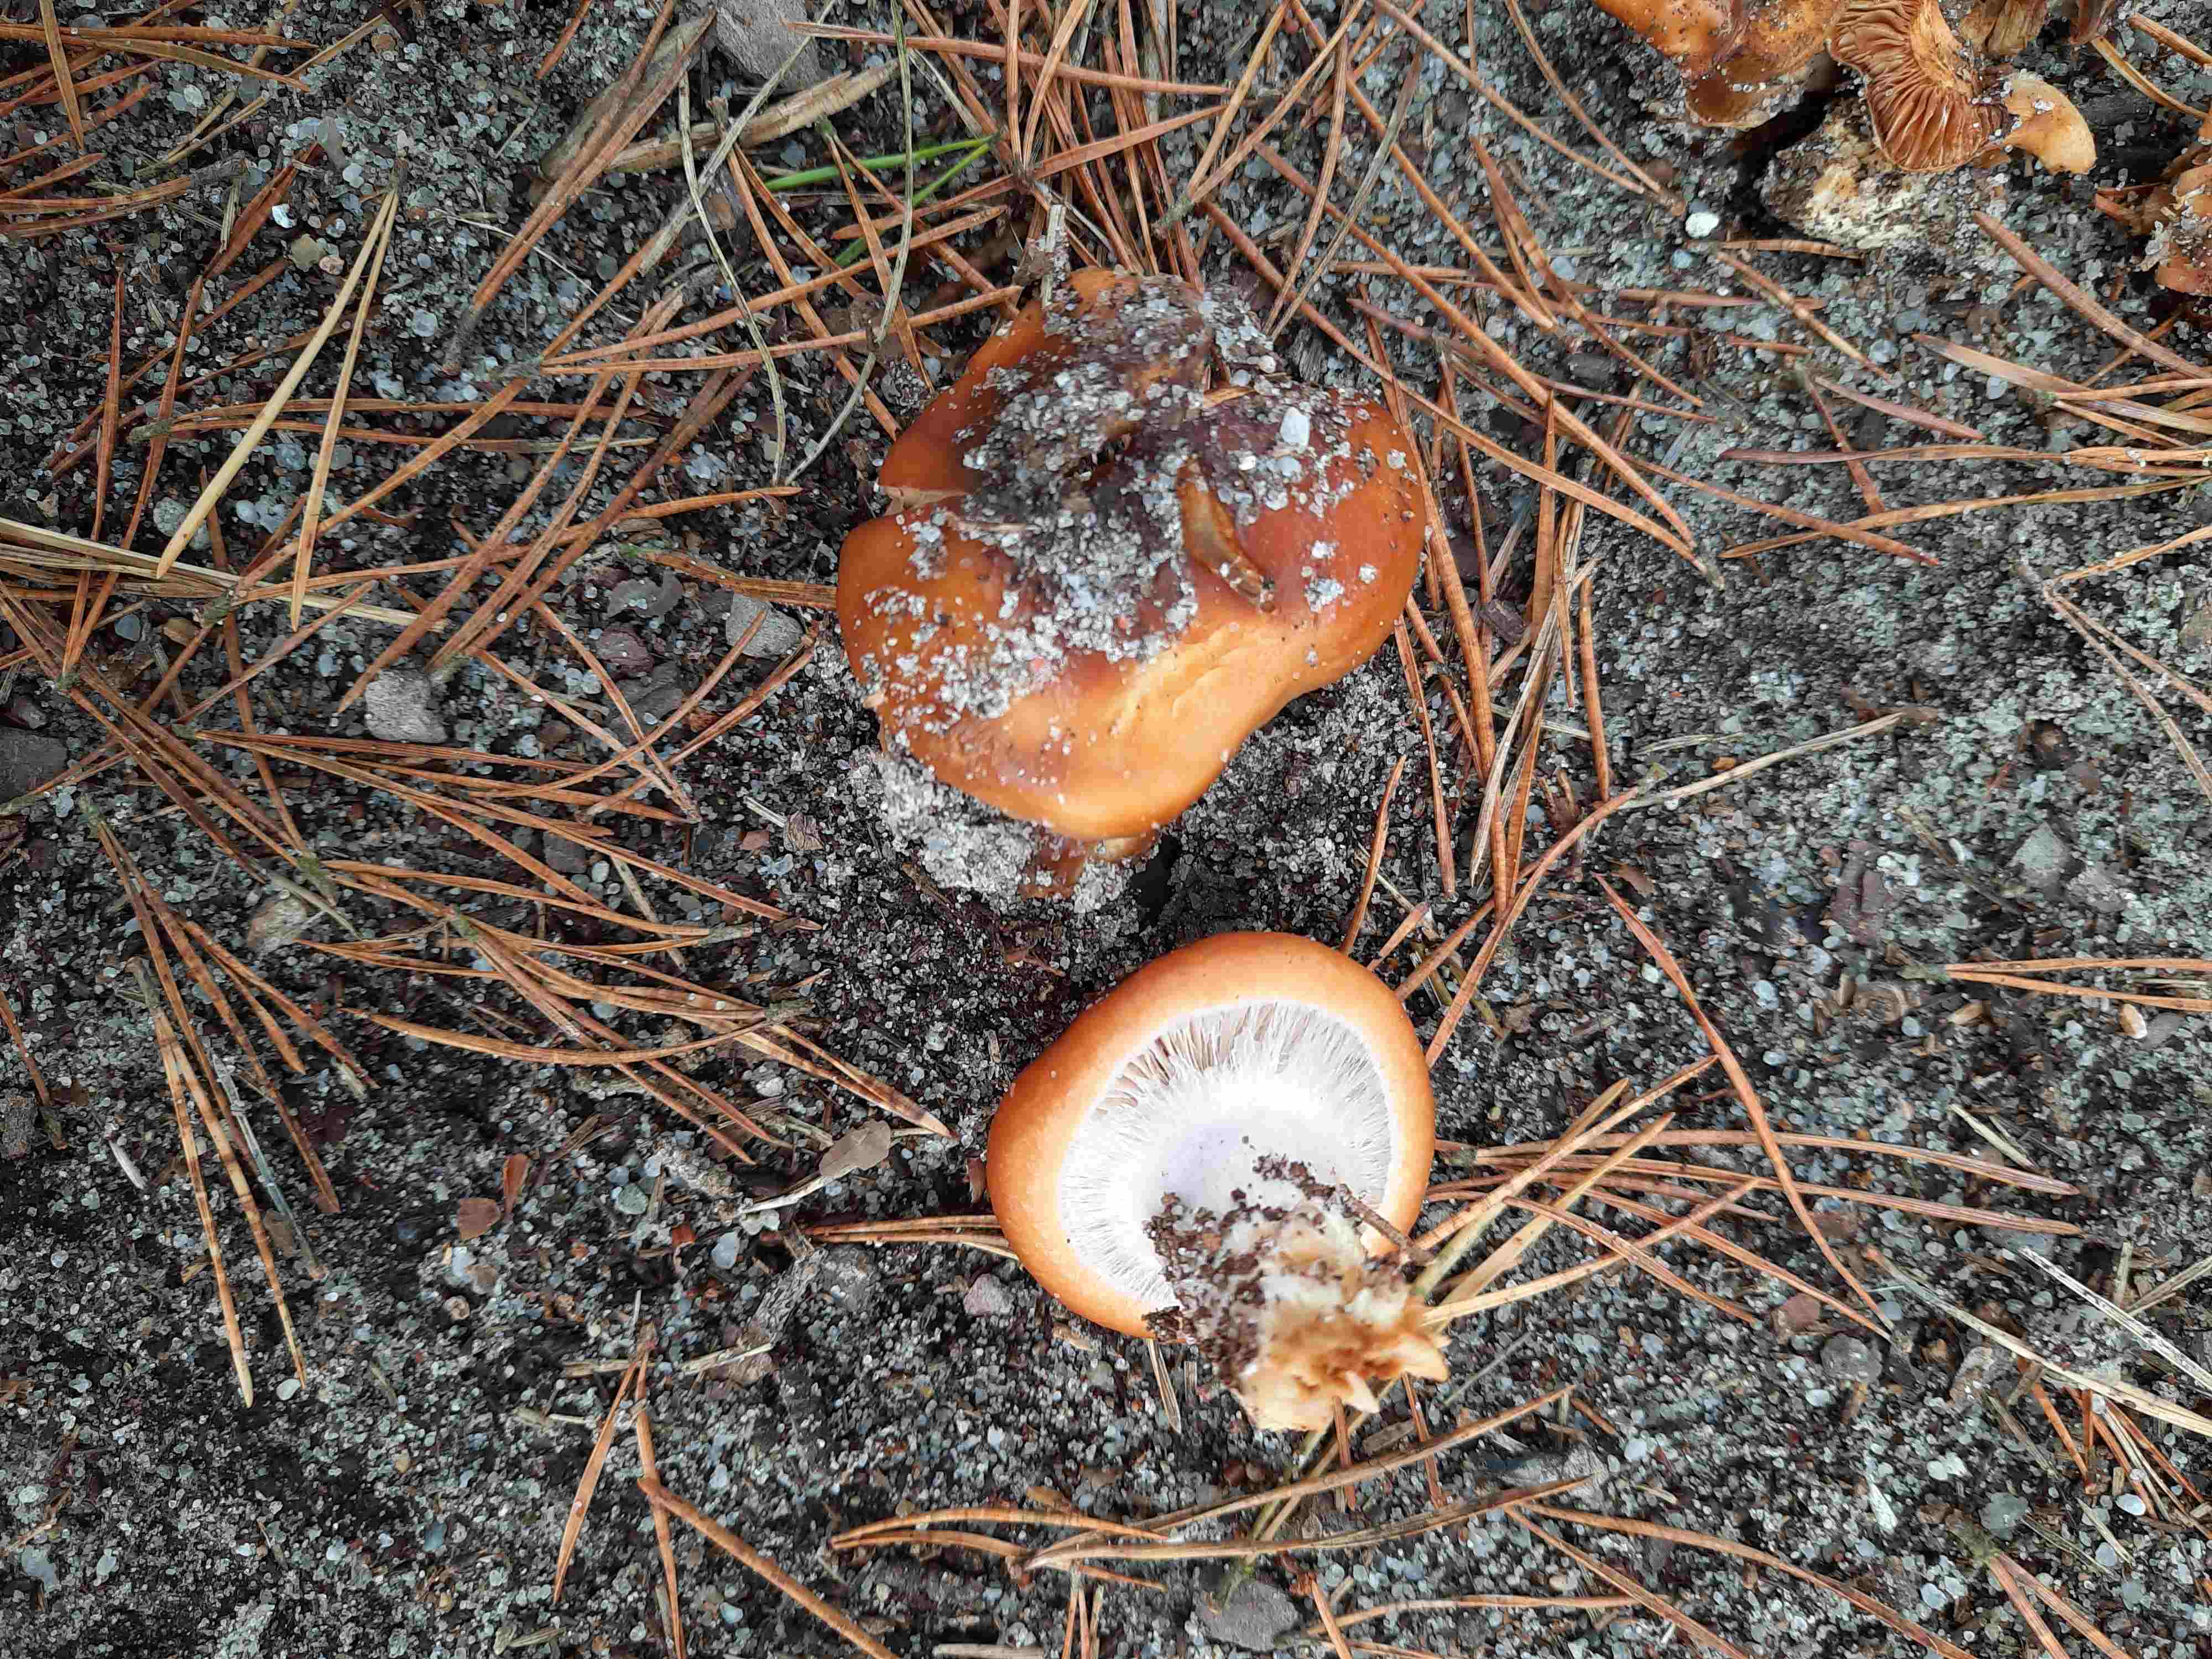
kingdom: Fungi
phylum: Basidiomycota
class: Agaricomycetes
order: Agaricales
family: Cortinariaceae
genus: Cortinarius
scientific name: Cortinarius mucosus
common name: kastaniebrun slørhat
